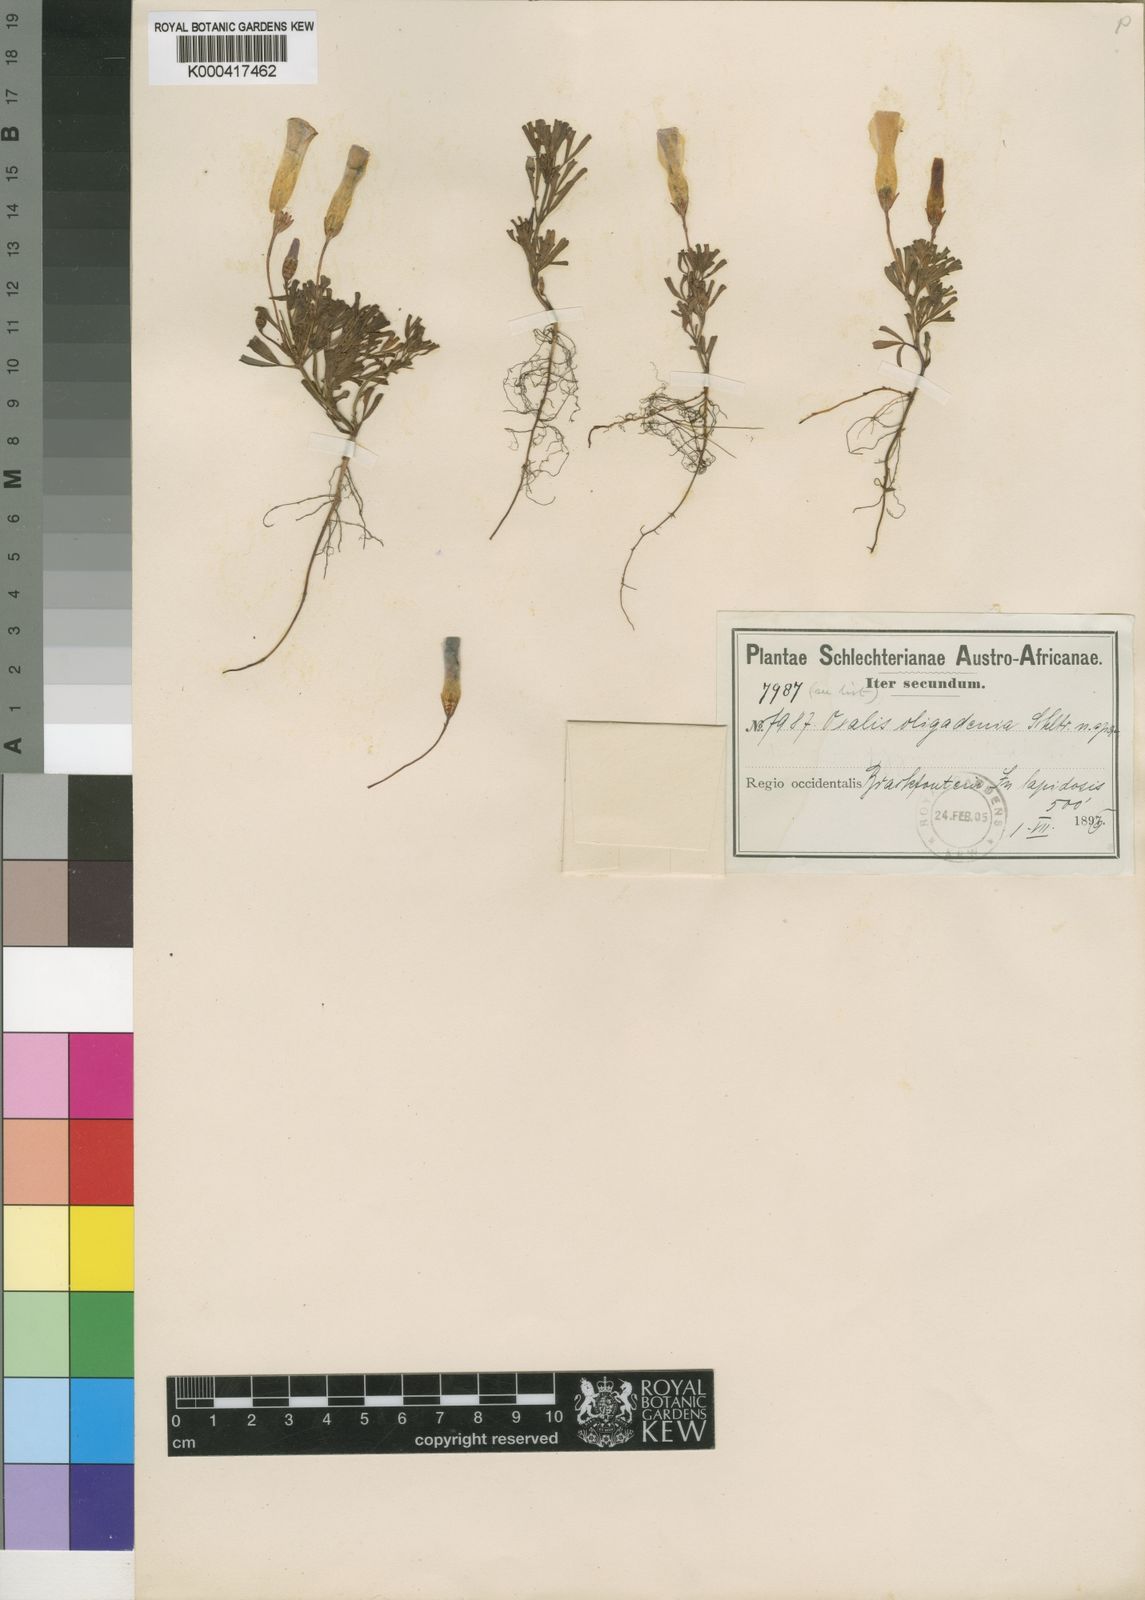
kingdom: Plantae
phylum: Tracheophyta
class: Magnoliopsida
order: Oxalidales
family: Oxalidaceae
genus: Oxalis
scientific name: Oxalis recticaulis
